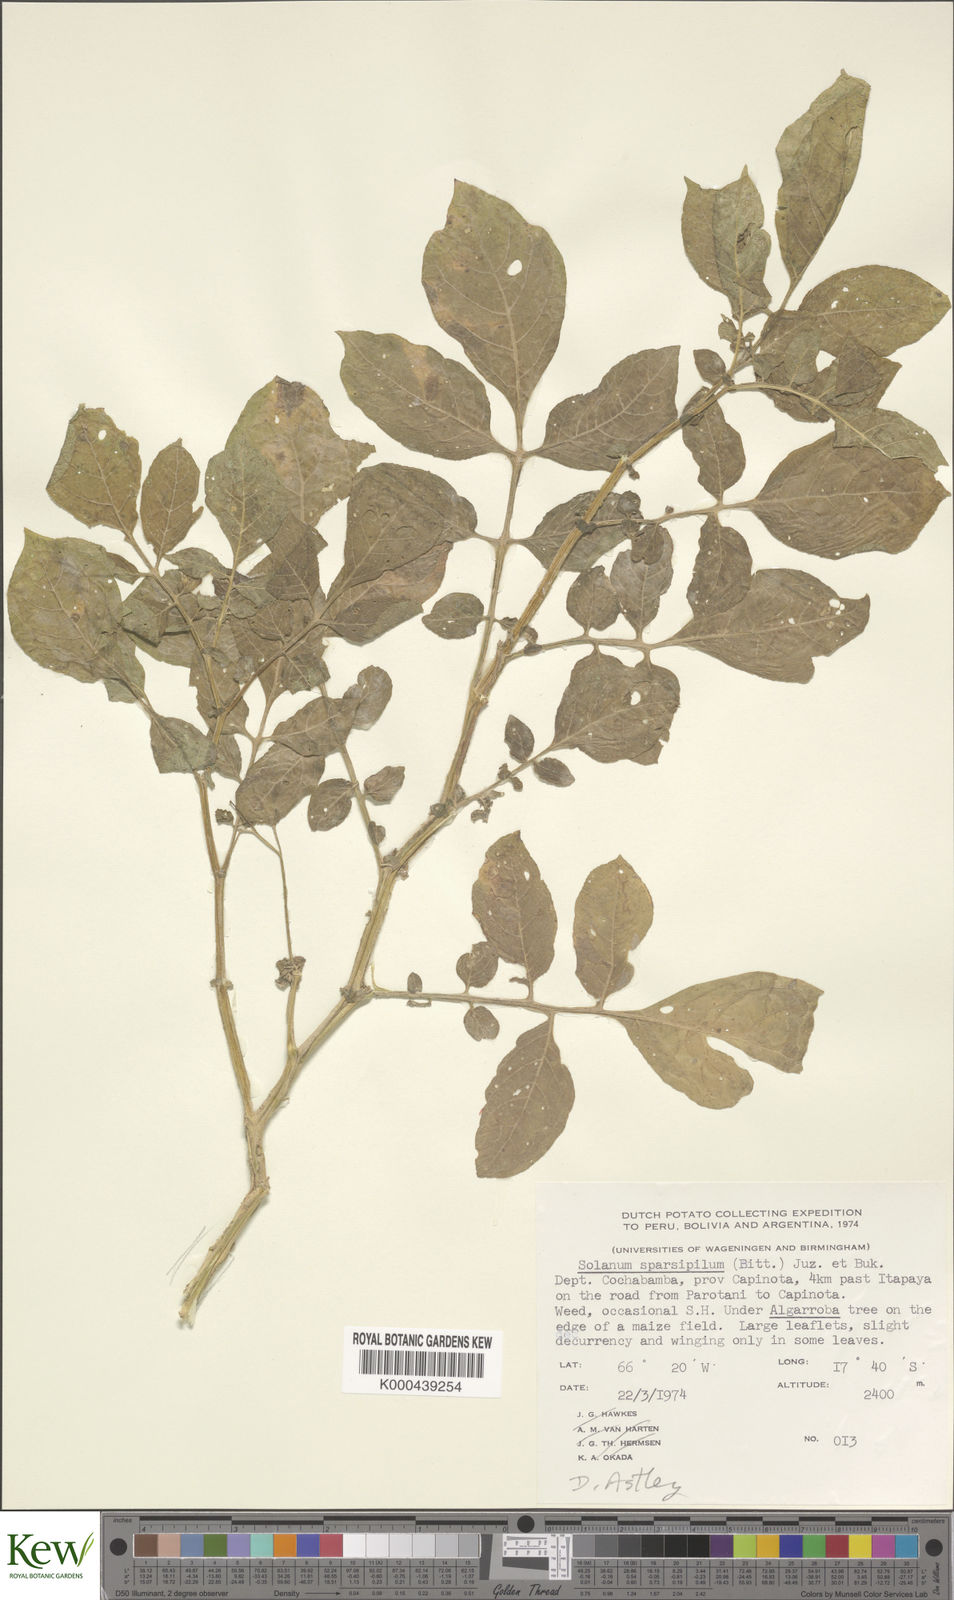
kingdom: Plantae
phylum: Tracheophyta
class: Magnoliopsida
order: Solanales
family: Solanaceae
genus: Solanum
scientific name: Solanum brevicaule
